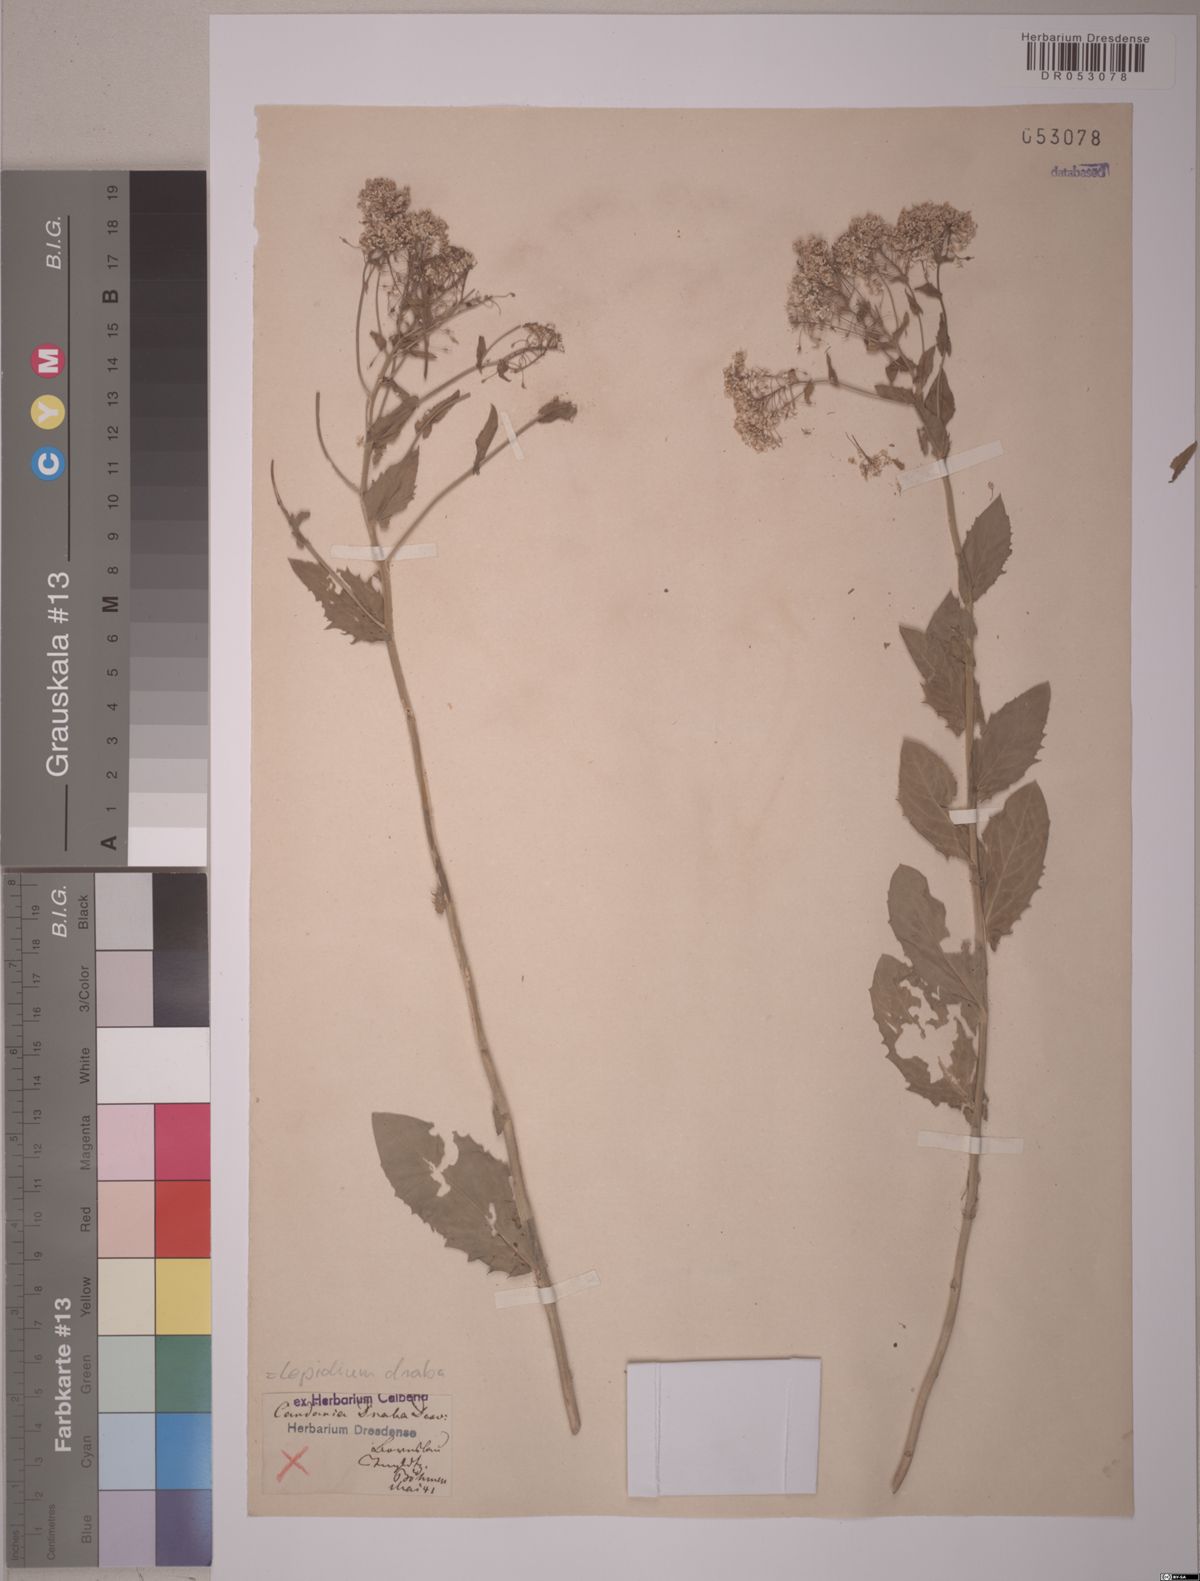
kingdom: Plantae
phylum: Tracheophyta
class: Magnoliopsida
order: Brassicales
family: Brassicaceae
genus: Lepidium
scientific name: Lepidium draba
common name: Hoary cress
